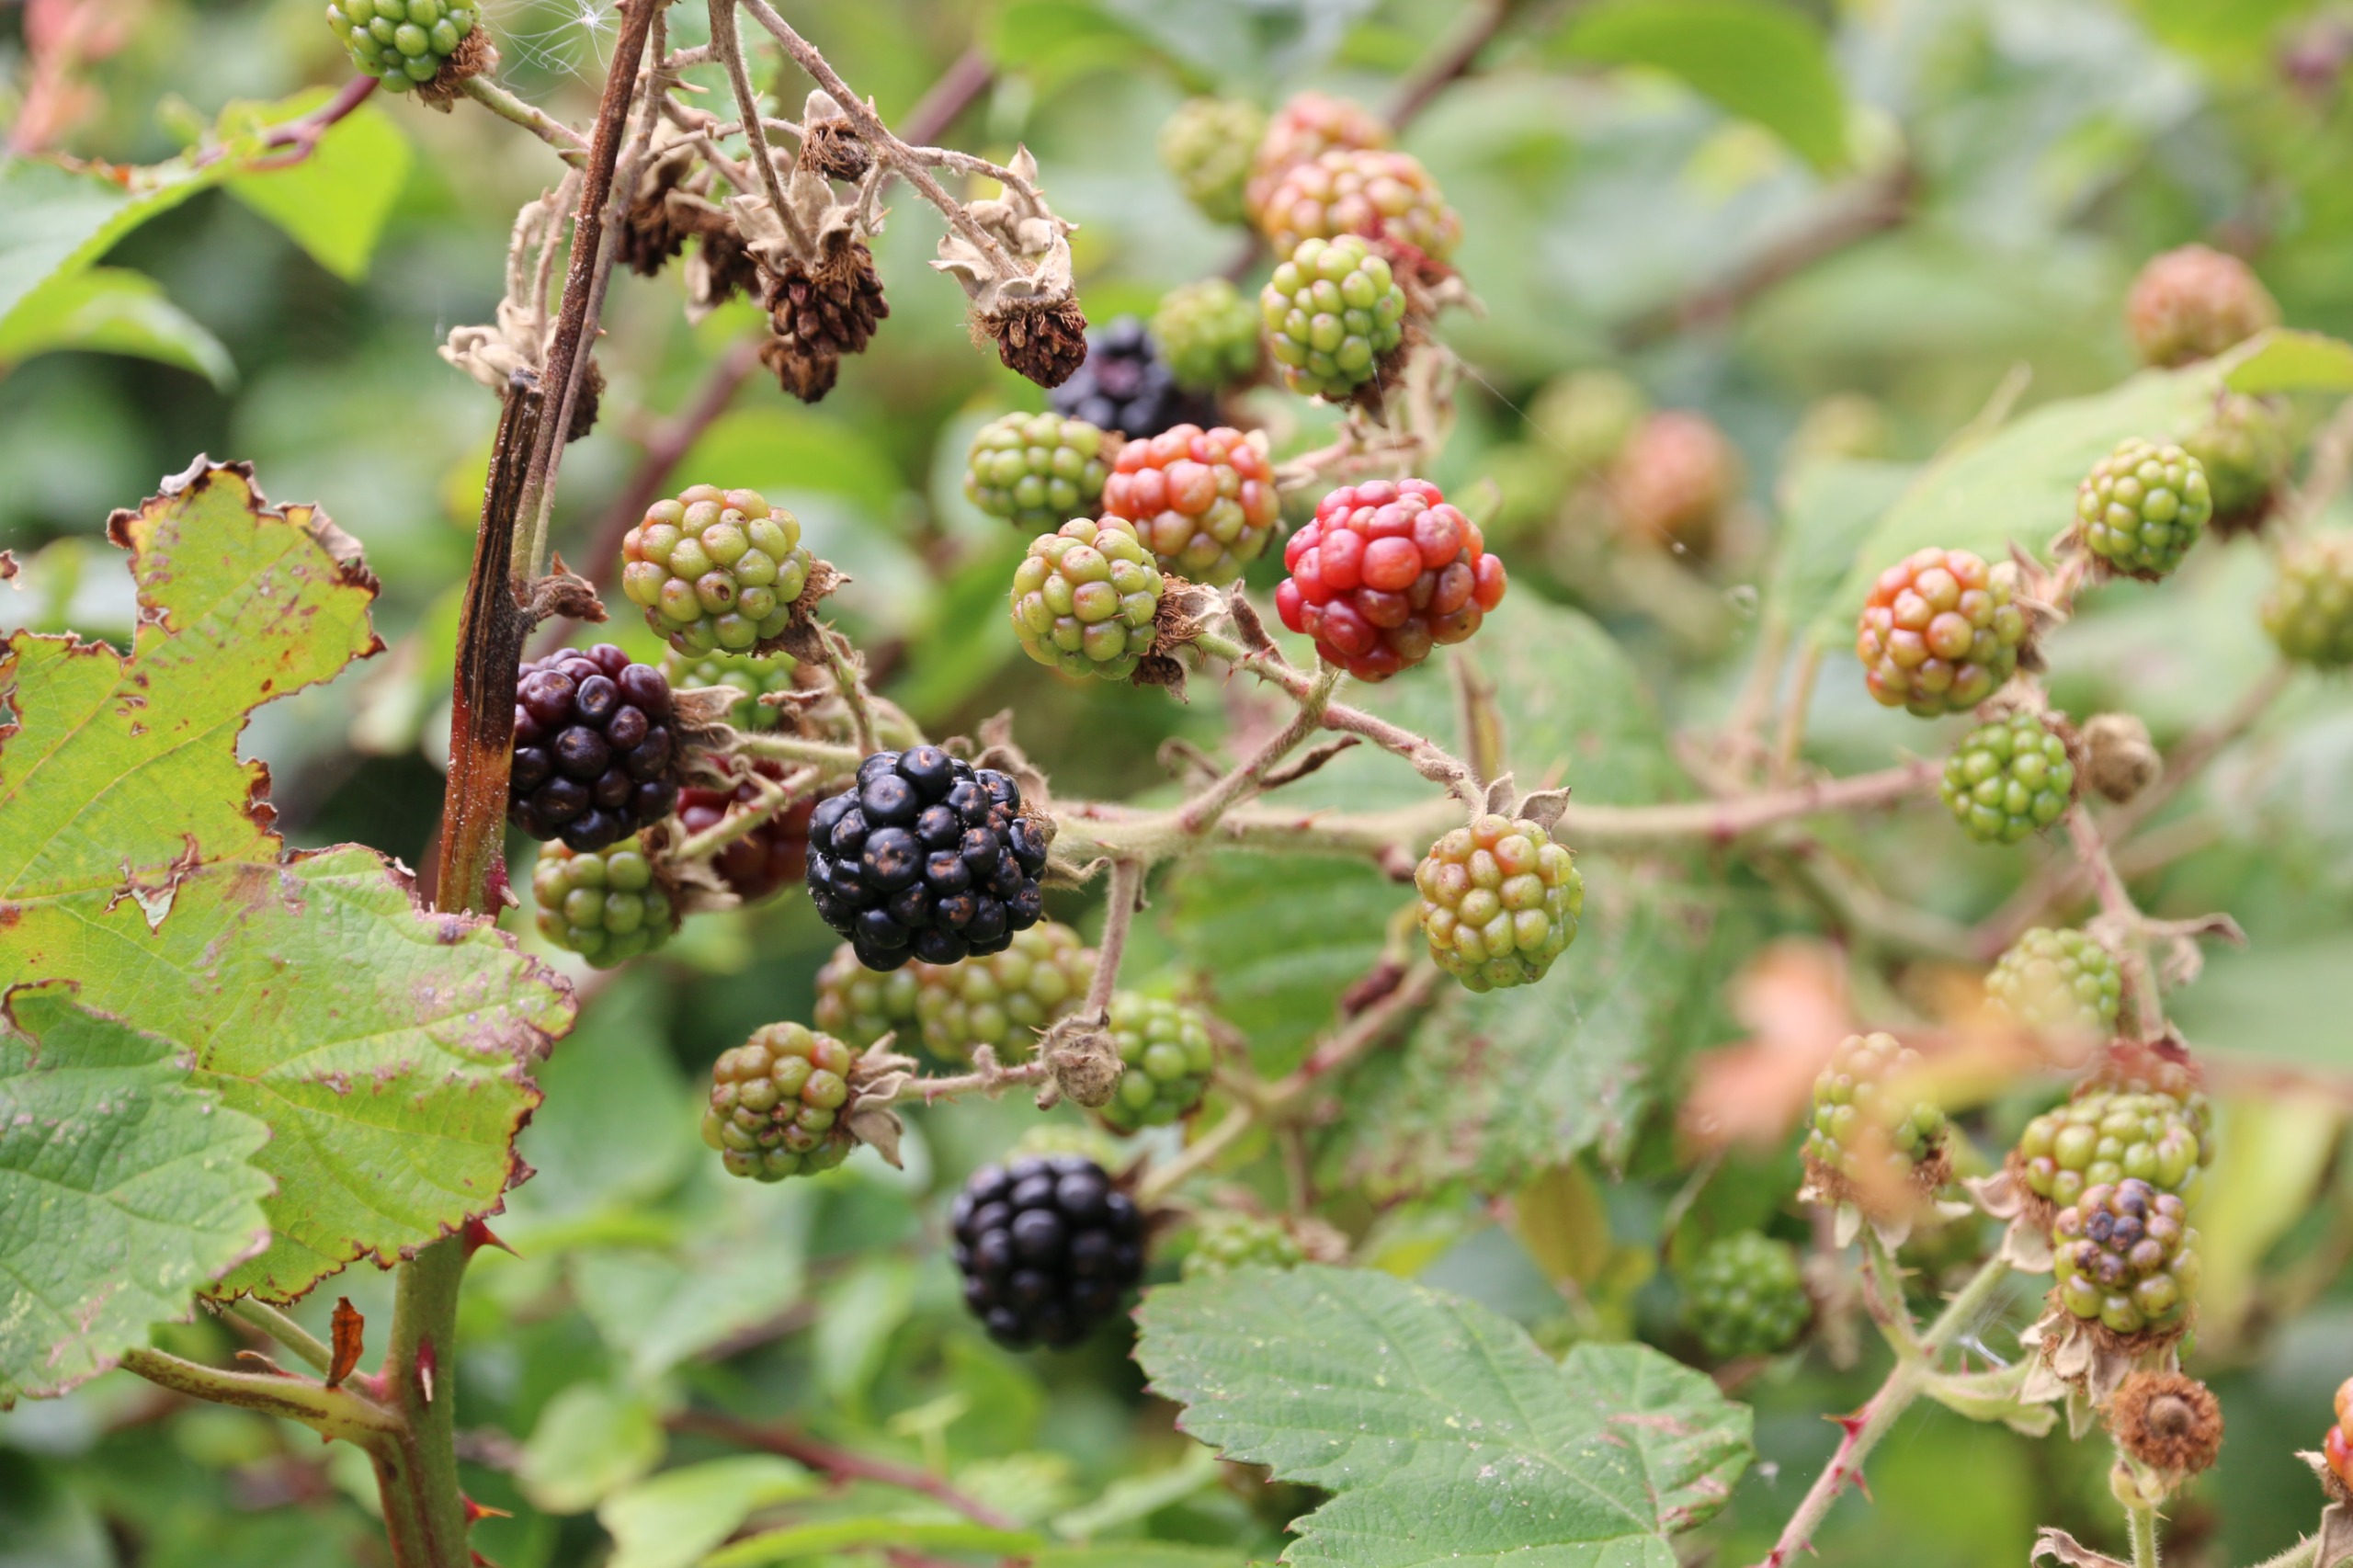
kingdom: Plantae
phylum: Tracheophyta
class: Magnoliopsida
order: Rosales
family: Rosaceae
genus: Rubus
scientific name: Rubus
